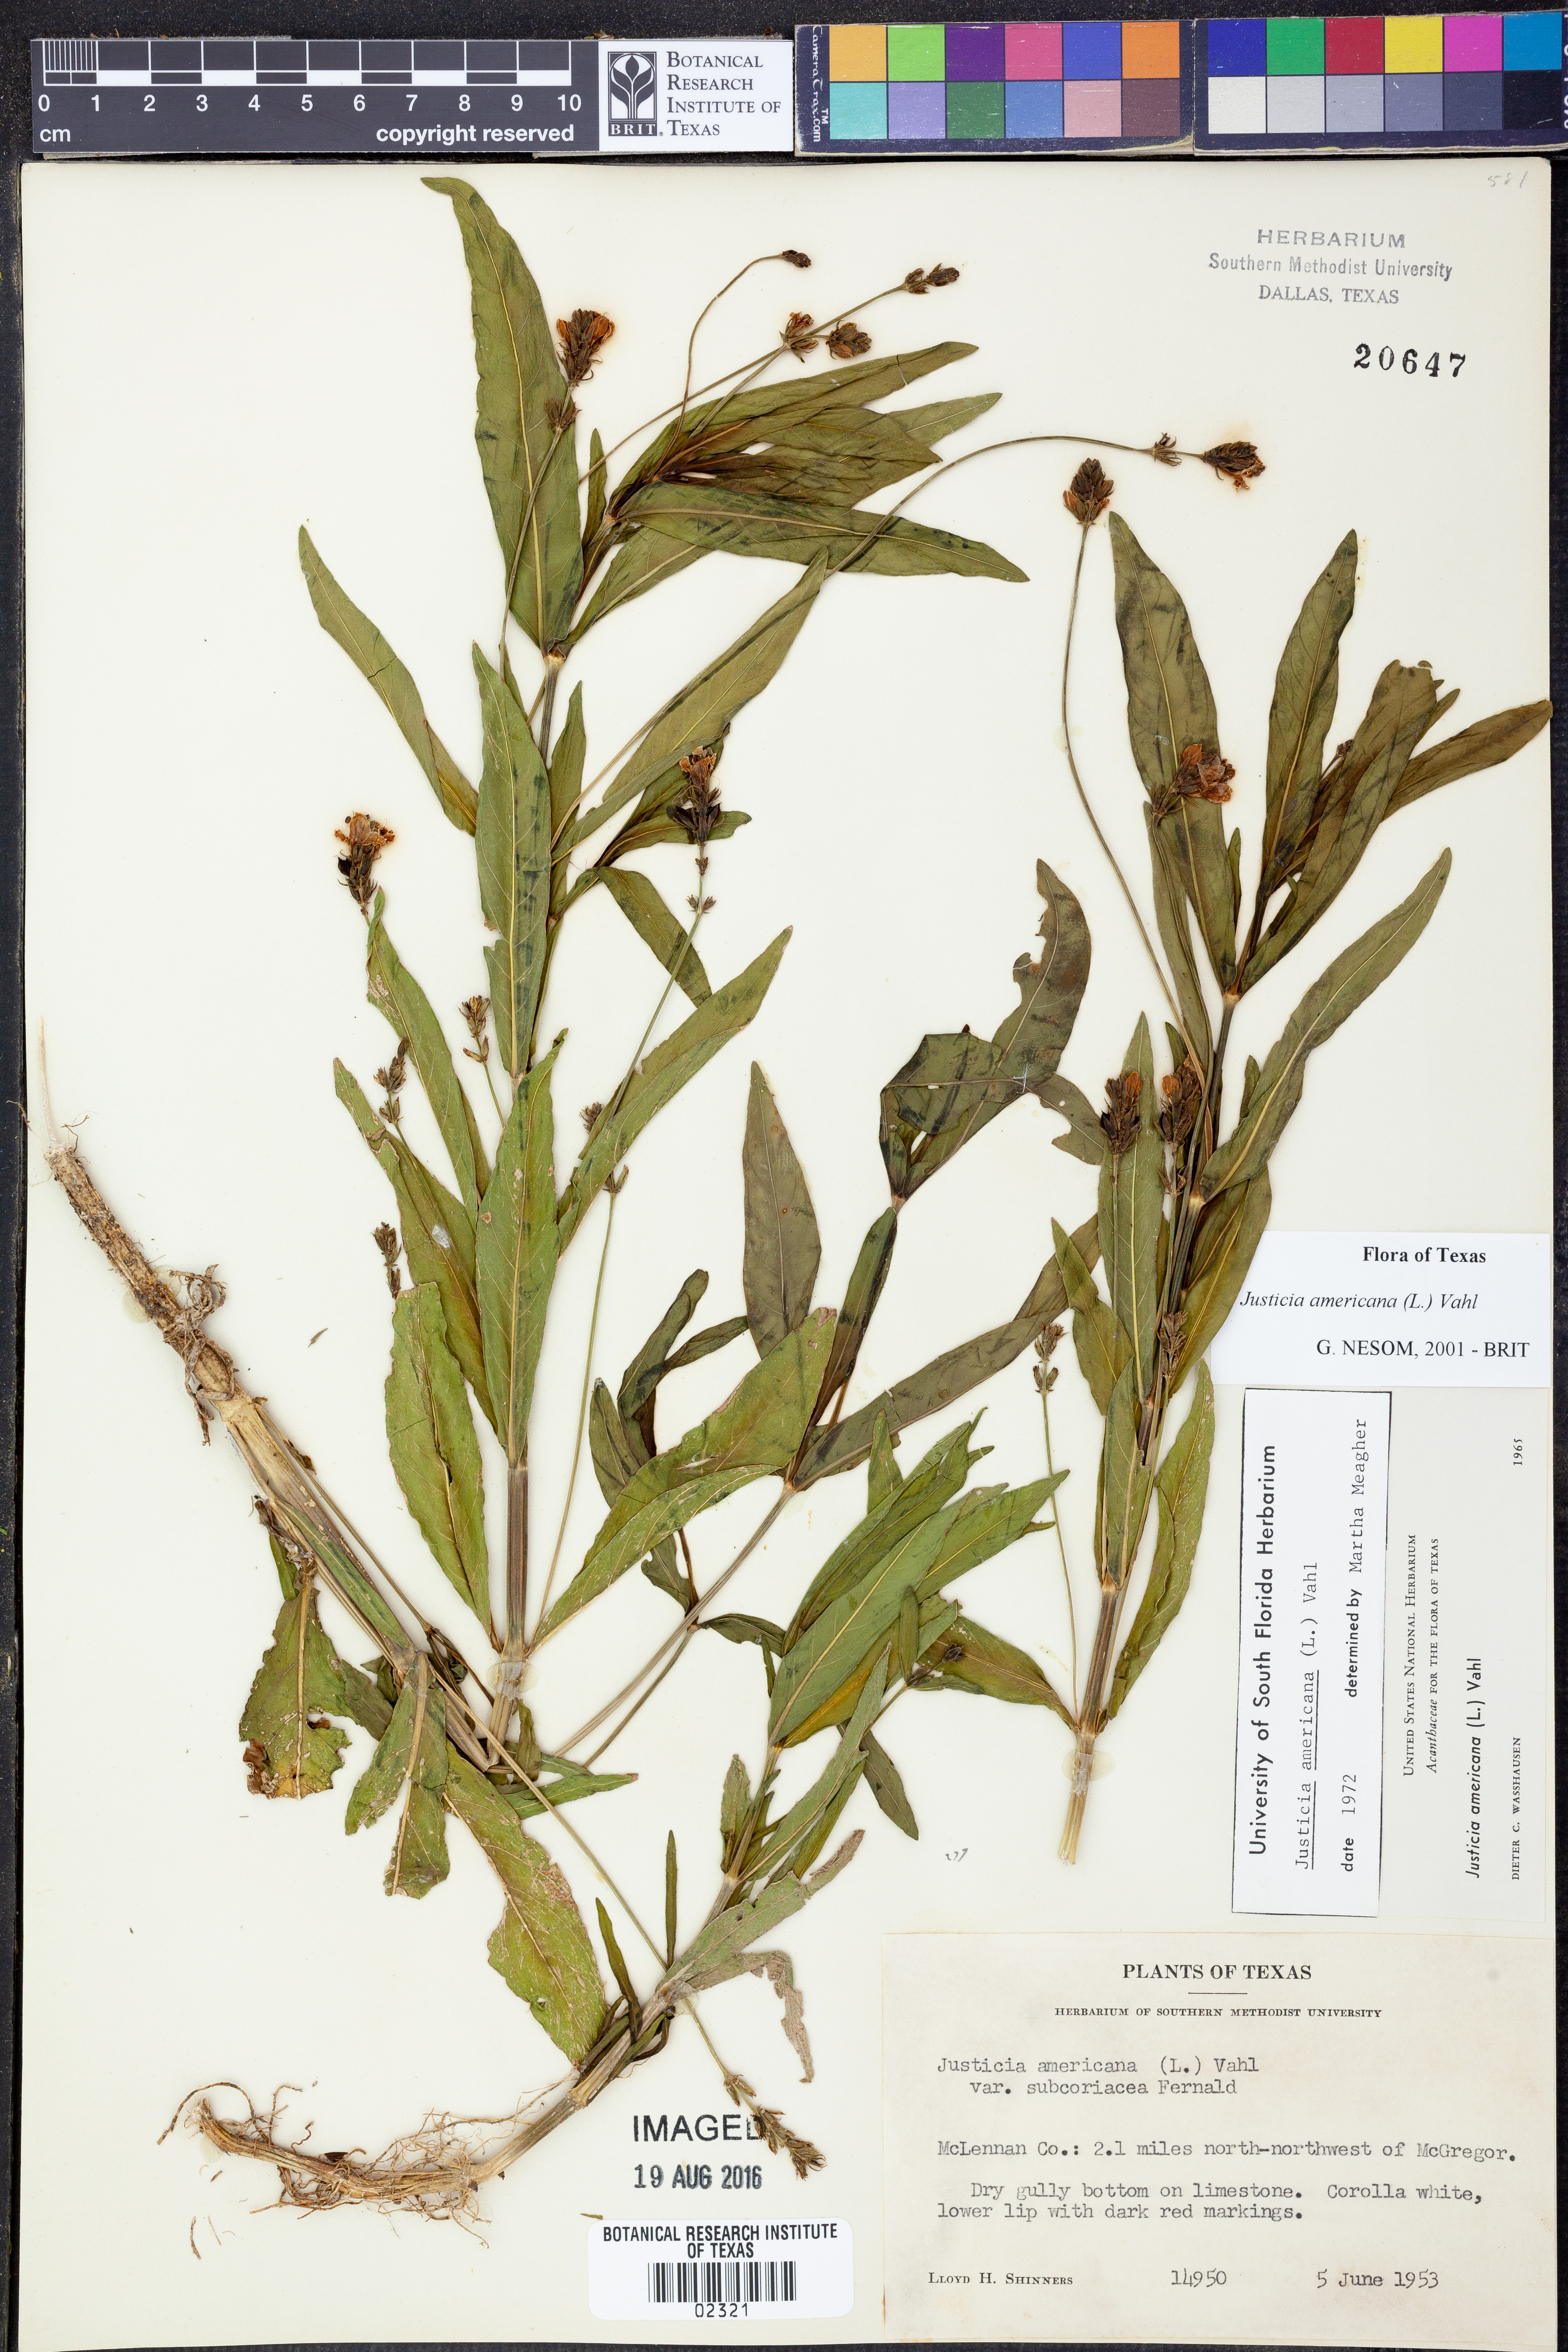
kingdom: Plantae
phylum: Tracheophyta
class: Magnoliopsida
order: Lamiales
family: Acanthaceae
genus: Dianthera
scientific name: Dianthera americana
